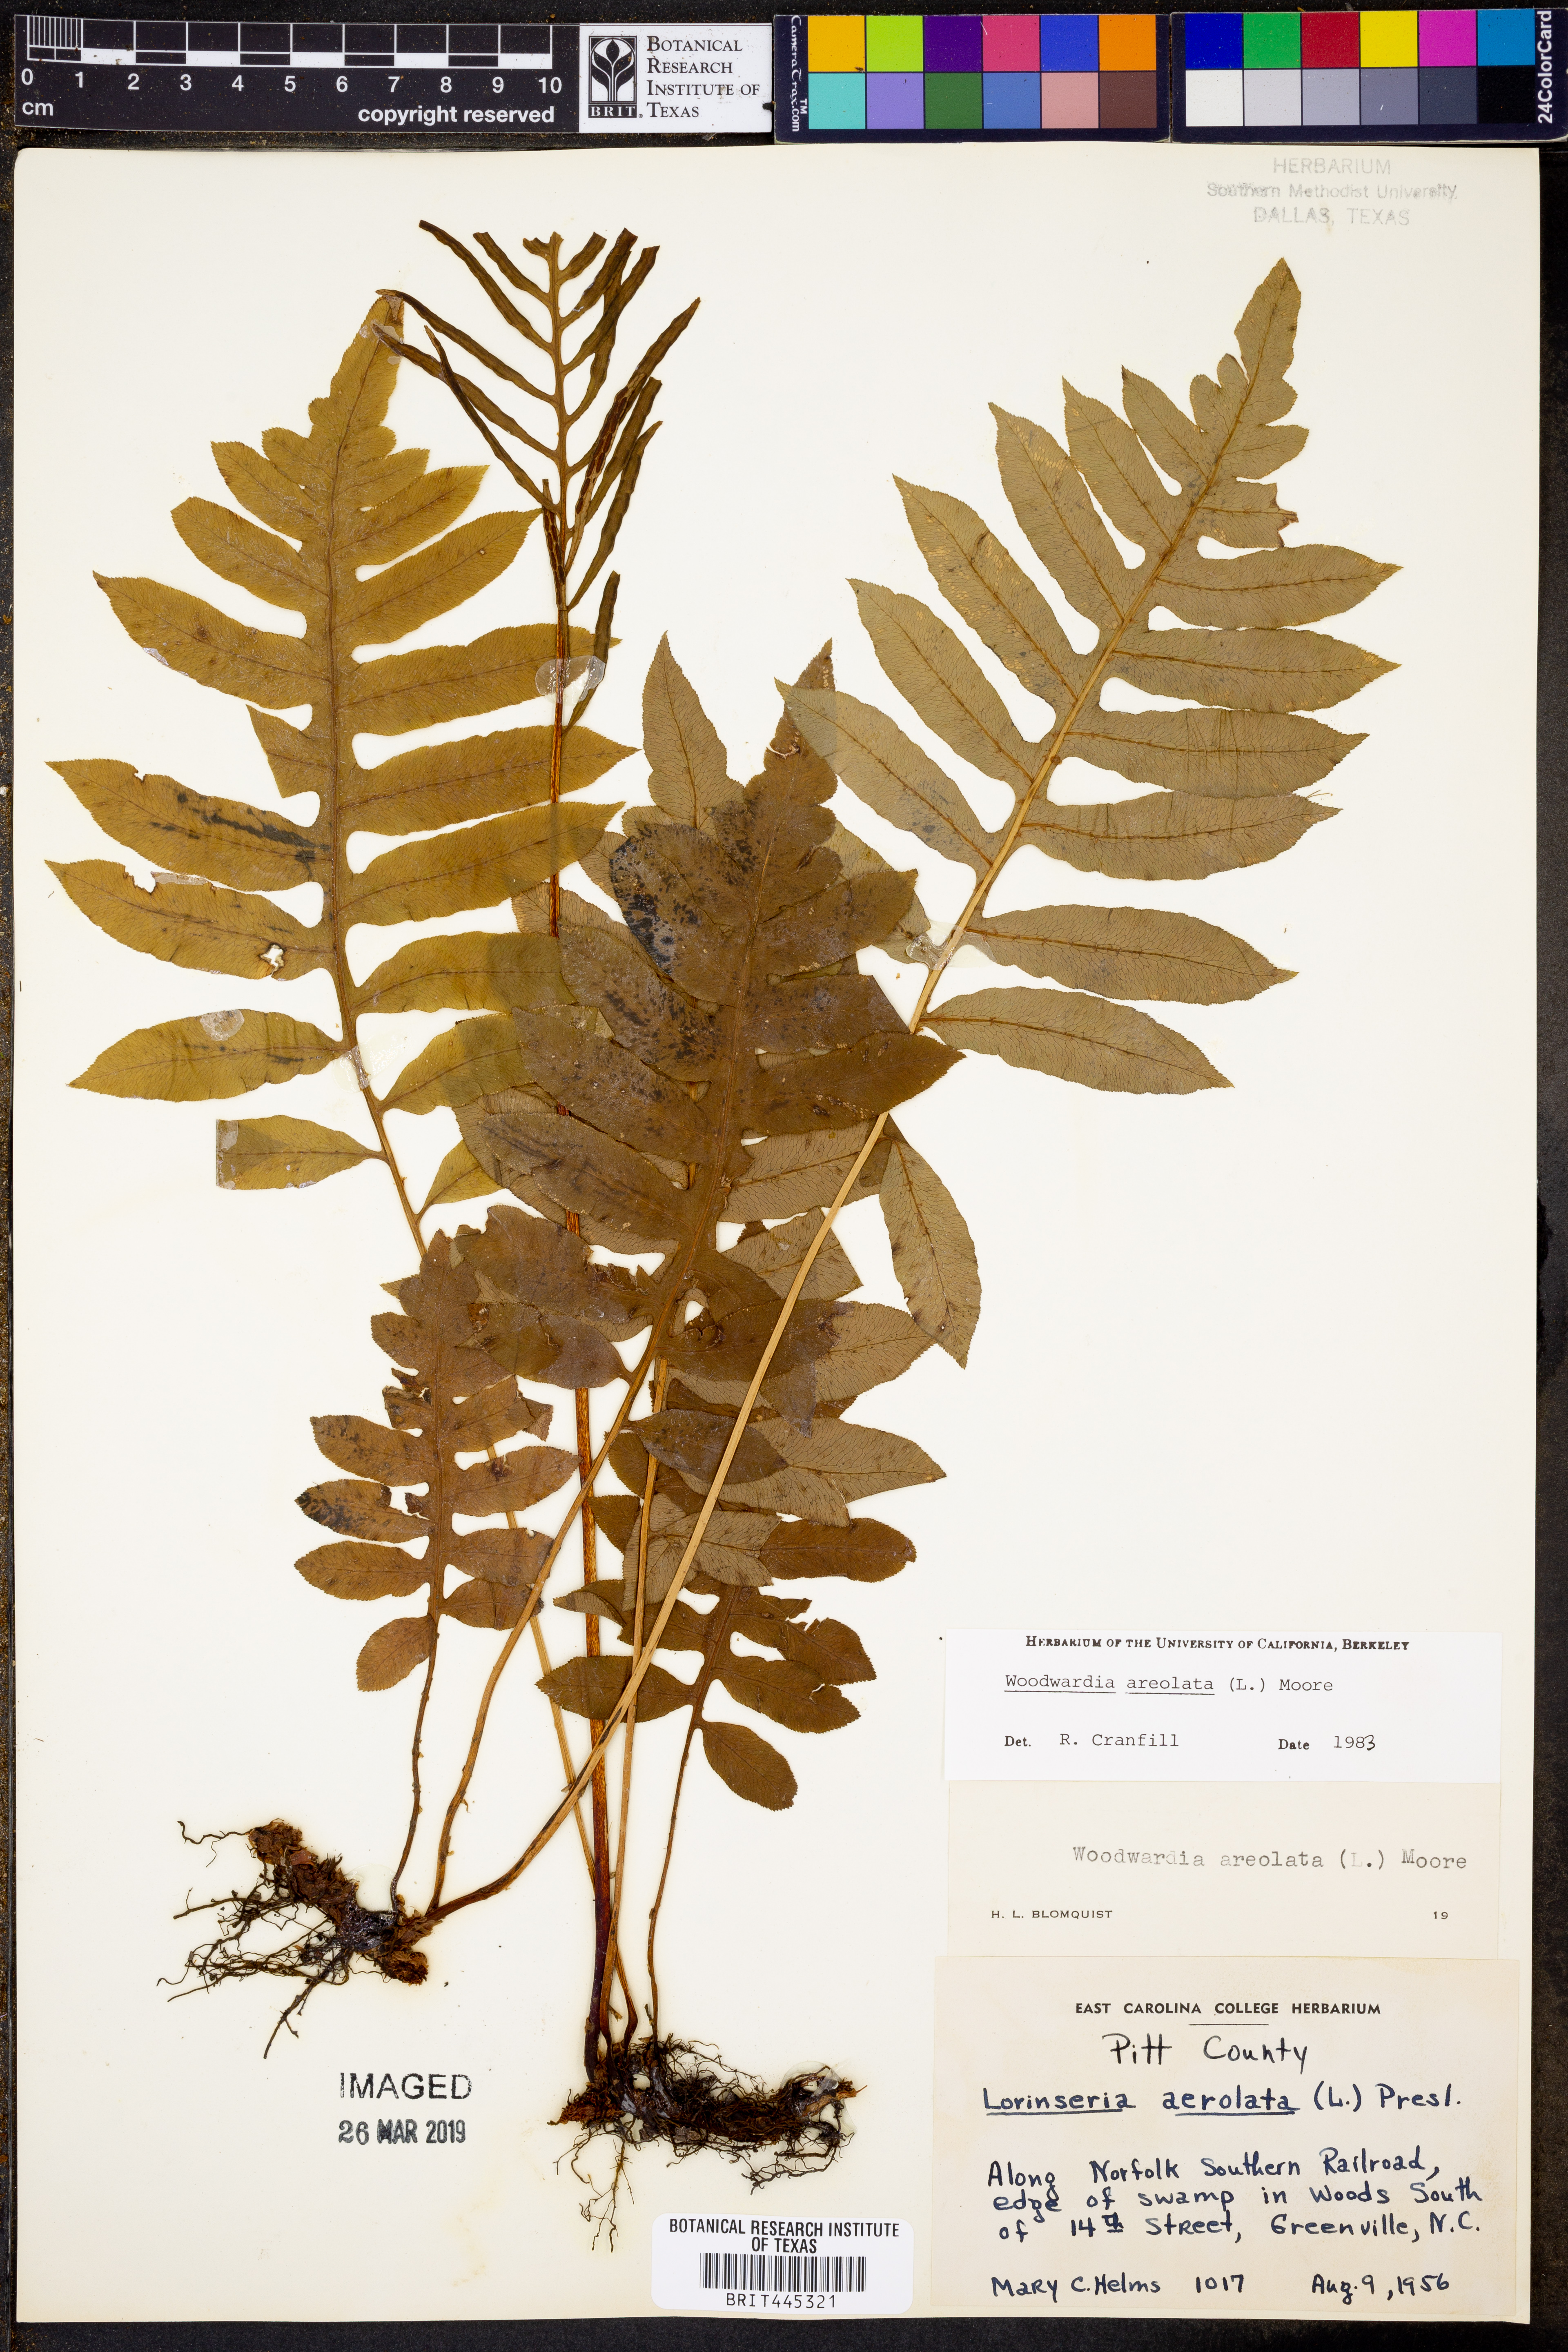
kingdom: Plantae
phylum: Tracheophyta
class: Polypodiopsida
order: Polypodiales
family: Blechnaceae
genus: Lorinseria
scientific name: Lorinseria areolata
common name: Dwarf chain fern
